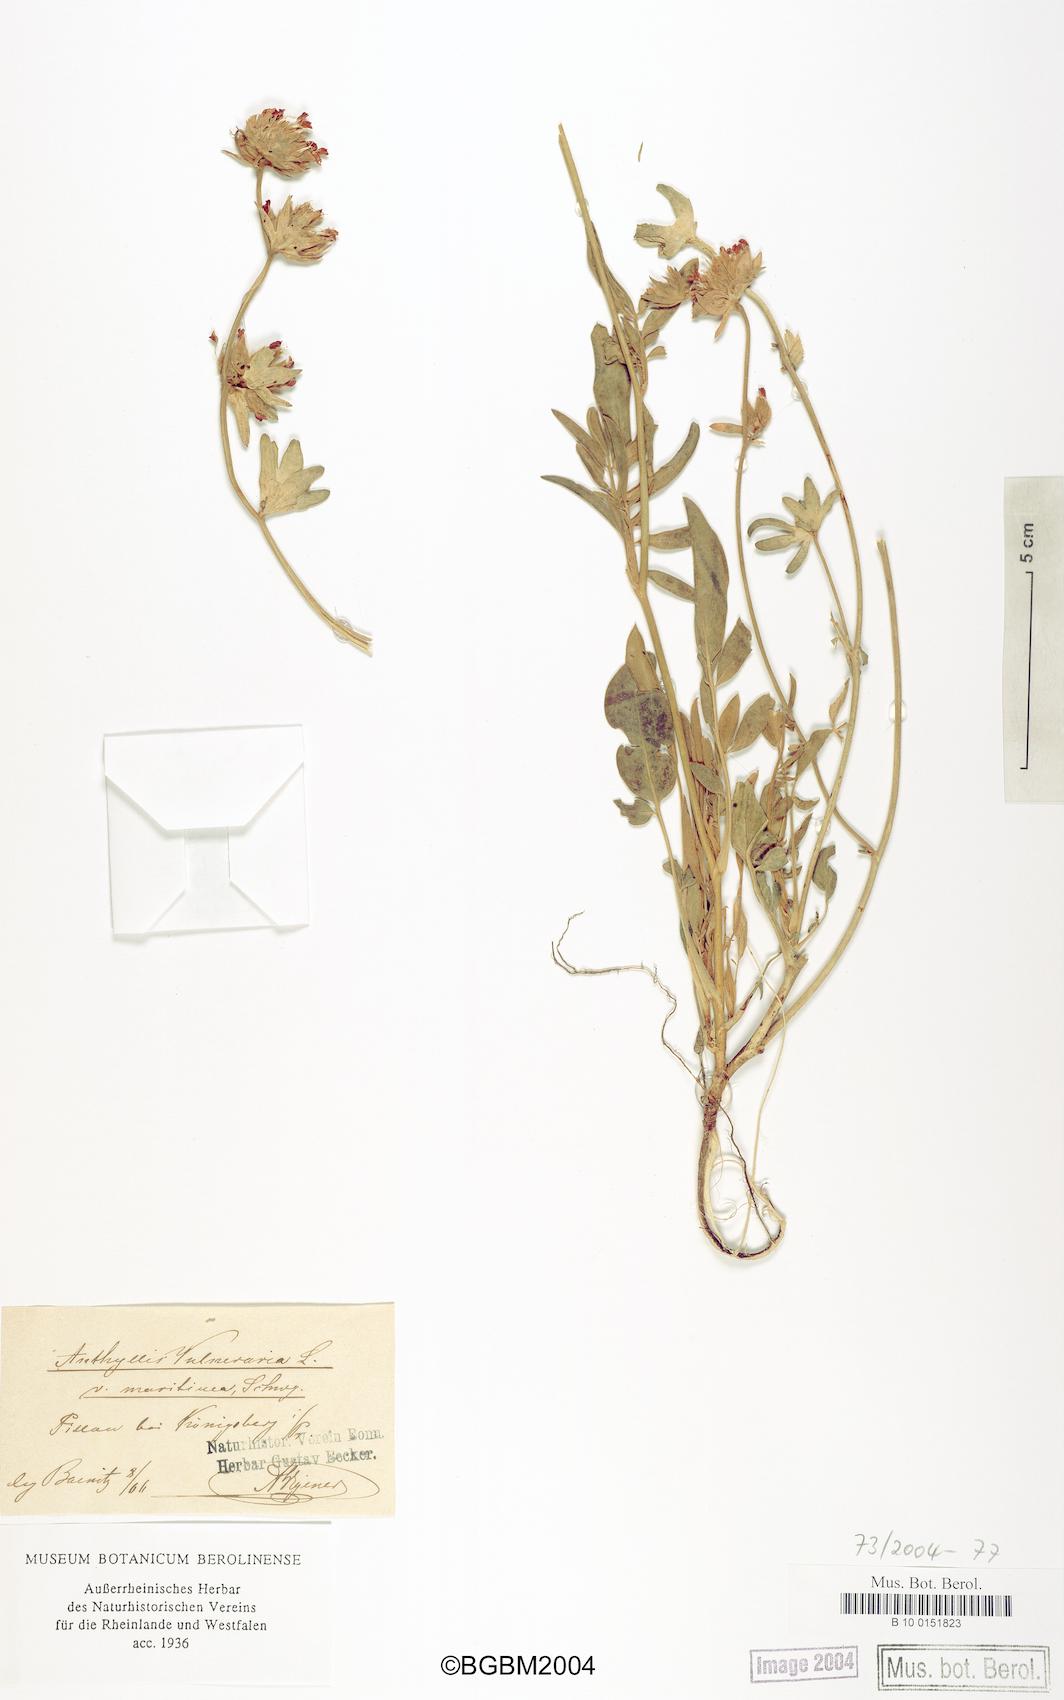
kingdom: Plantae
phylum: Tracheophyta
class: Magnoliopsida
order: Fabales
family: Fabaceae
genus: Anthyllis
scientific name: Anthyllis vulneraria
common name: Kidney vetch
